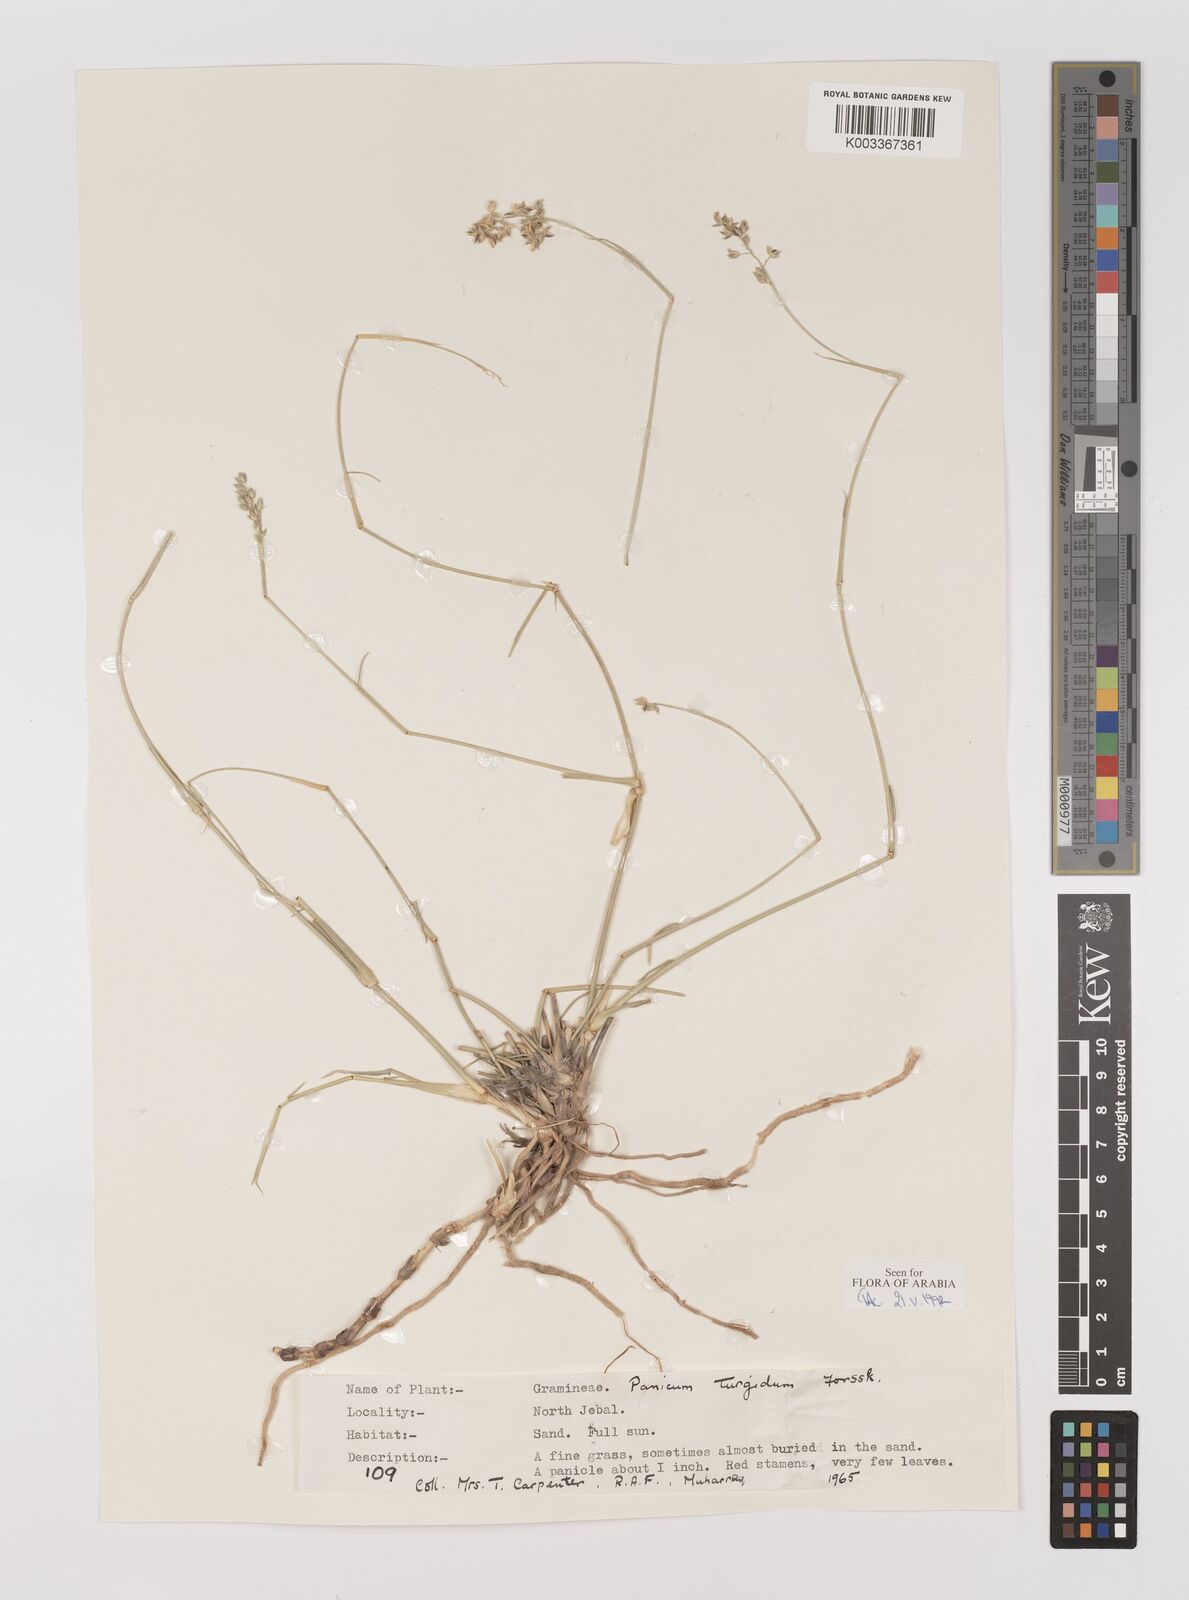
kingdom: Plantae
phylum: Tracheophyta
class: Liliopsida
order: Poales
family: Poaceae
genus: Panicum
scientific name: Panicum turgidum
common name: Desert grass
